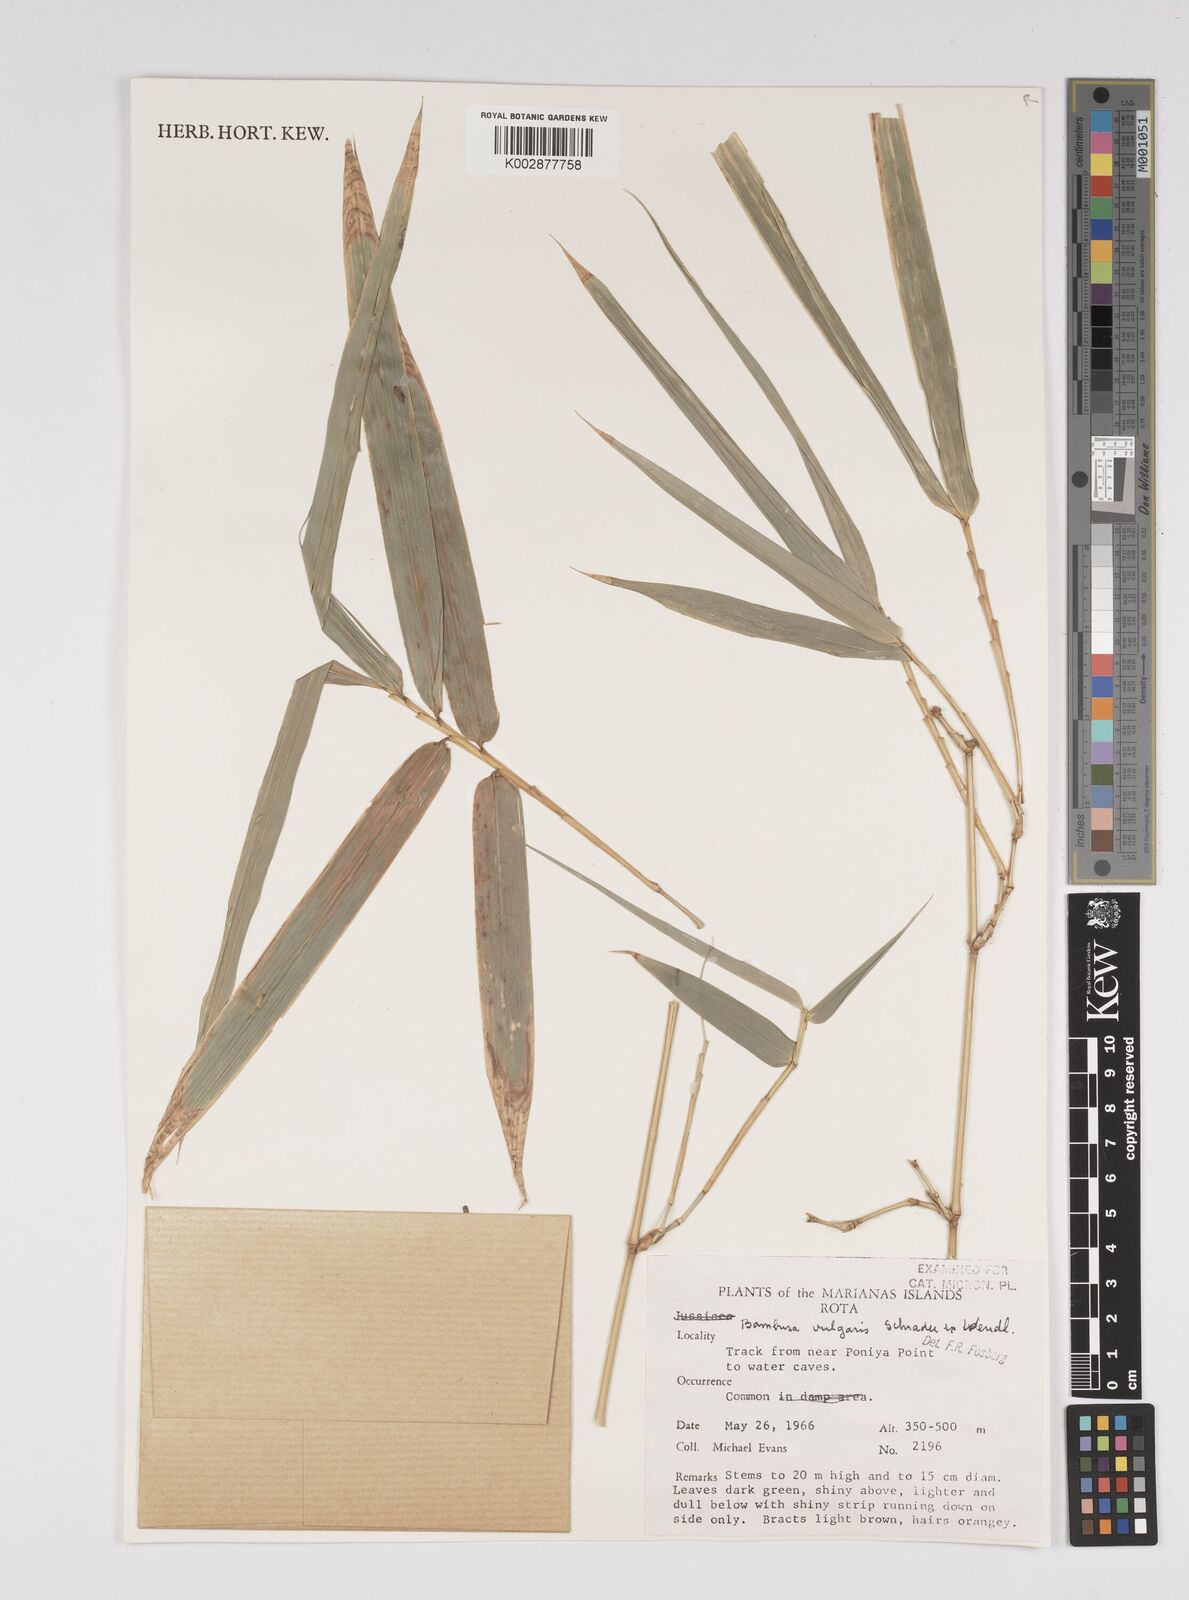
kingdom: Plantae
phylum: Tracheophyta
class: Liliopsida
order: Poales
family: Poaceae
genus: Bambusa
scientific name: Bambusa
